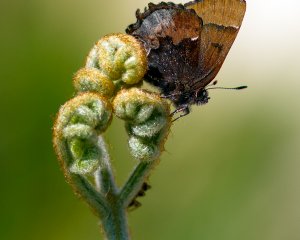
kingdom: Animalia
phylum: Arthropoda
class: Insecta
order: Lepidoptera
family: Lycaenidae
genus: Incisalia
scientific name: Incisalia henrici
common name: Henry's Elfin
